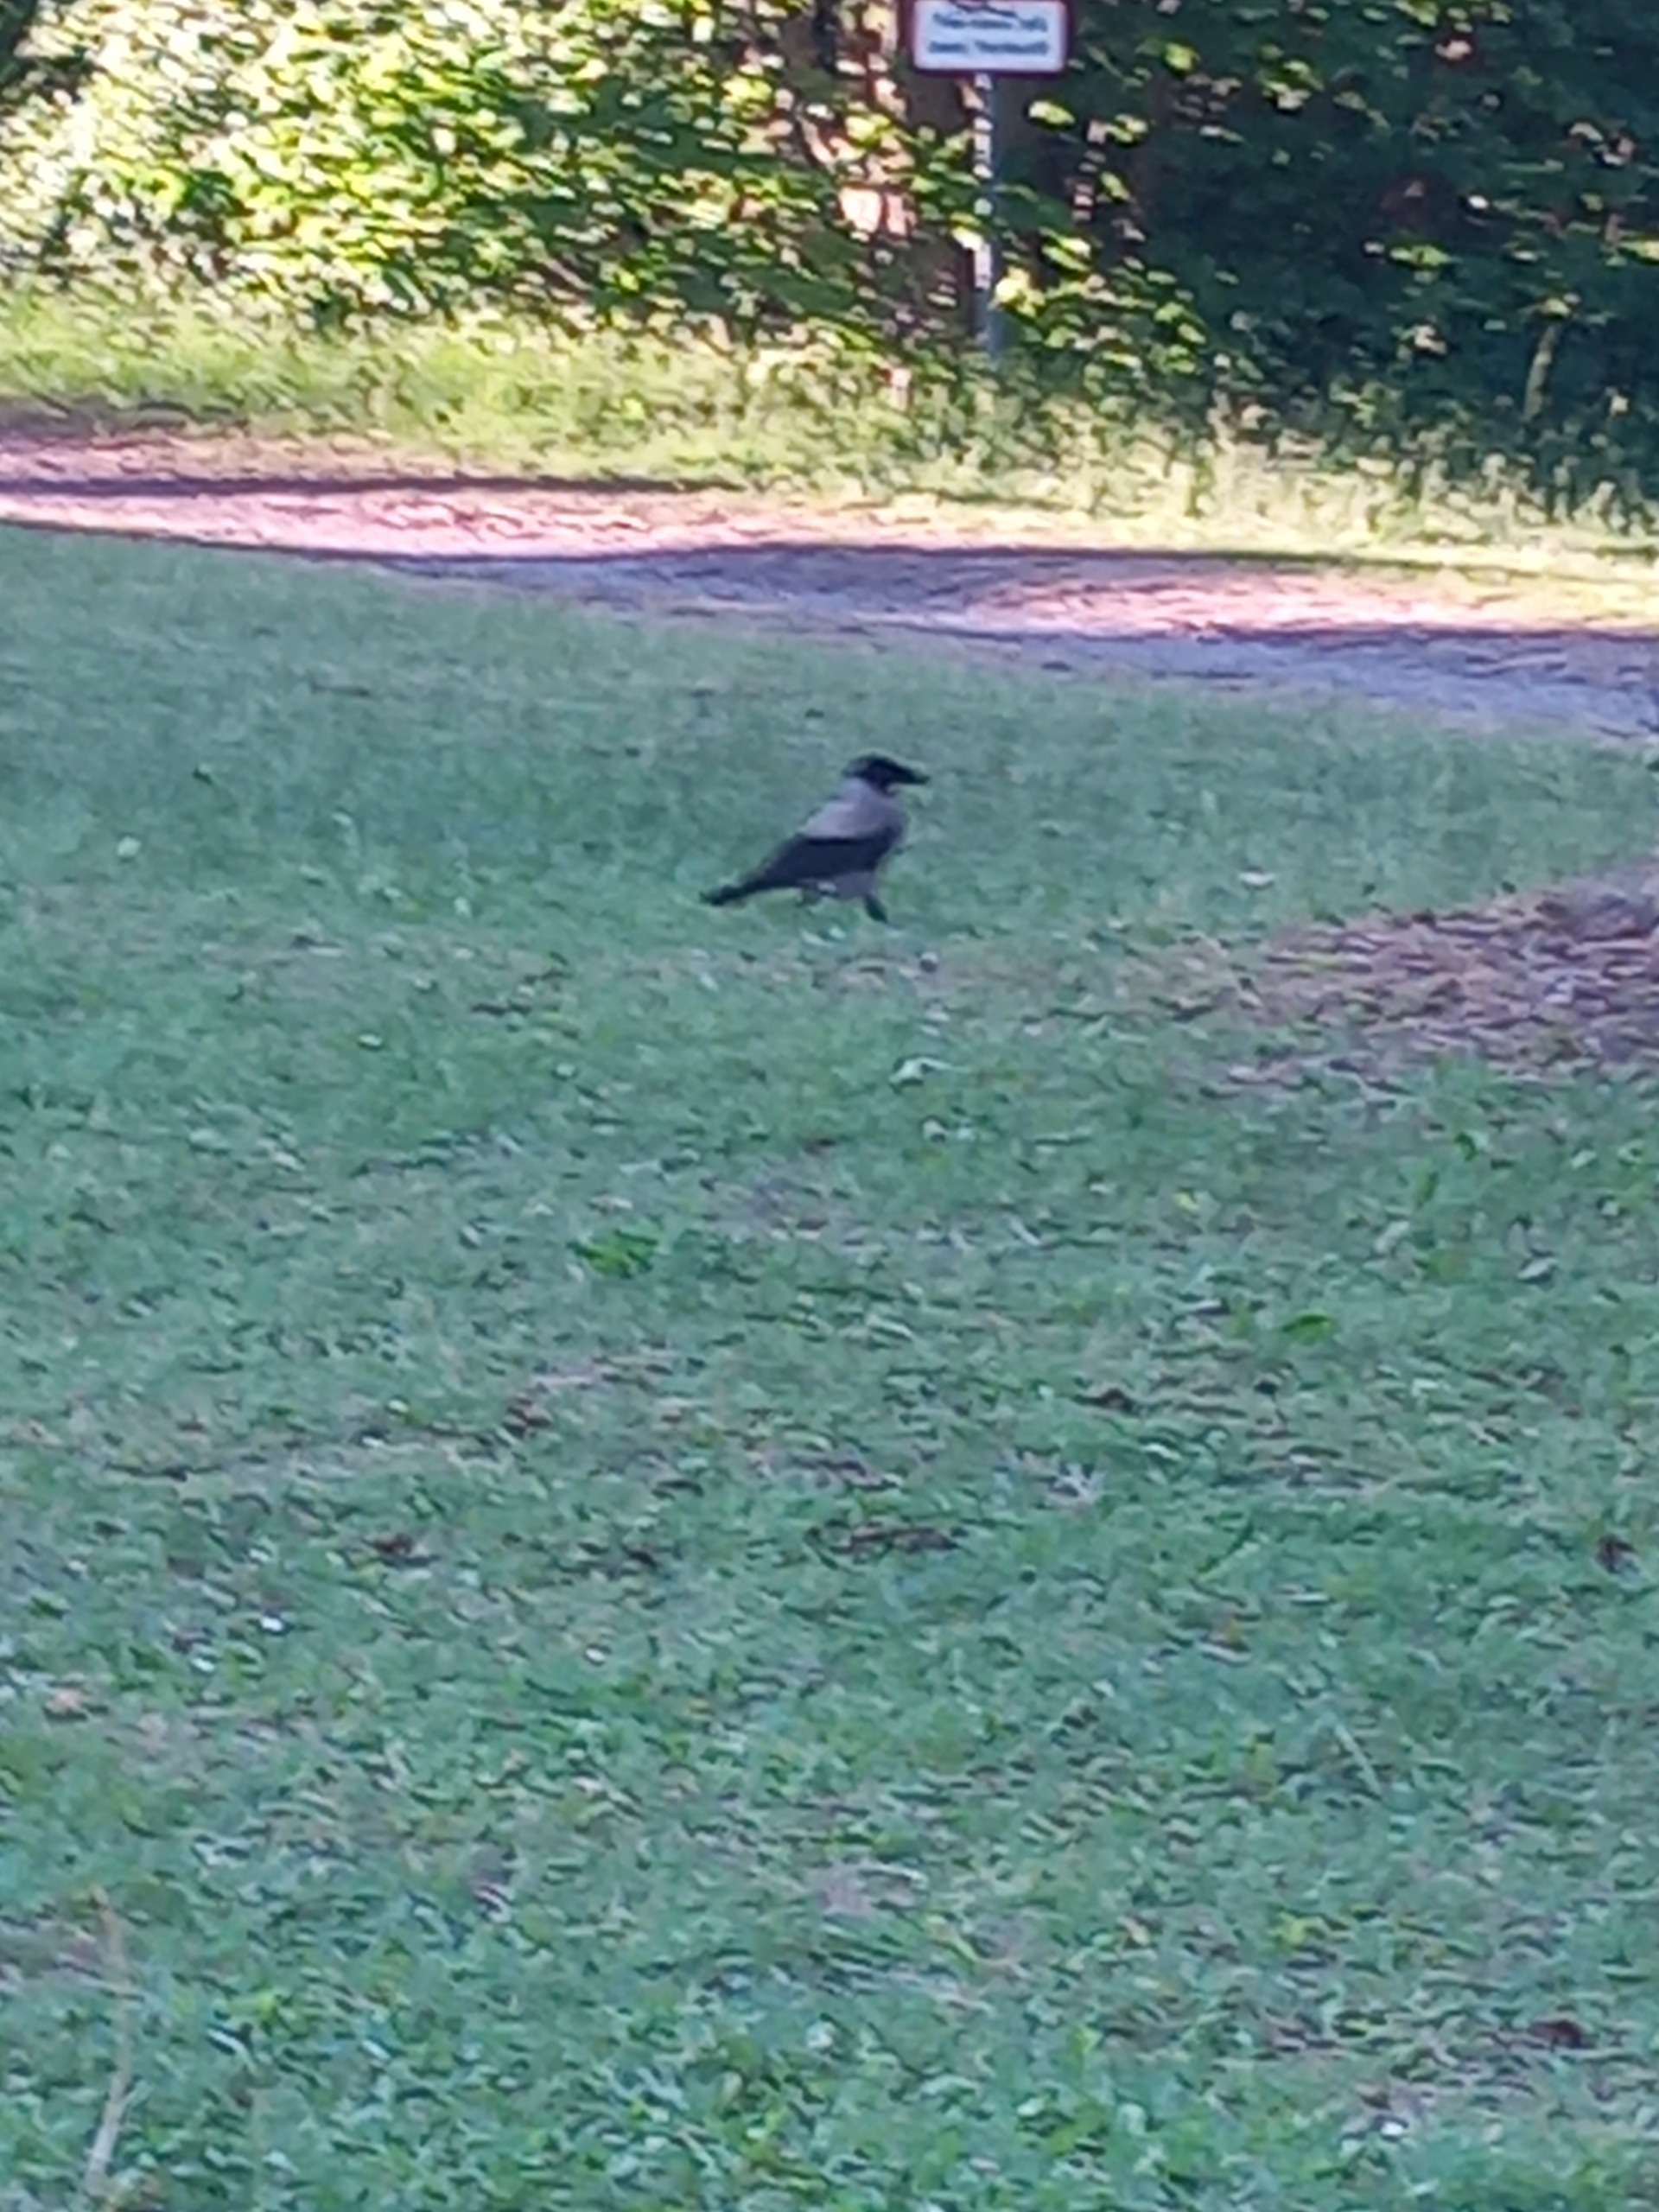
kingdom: Animalia
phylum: Chordata
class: Aves
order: Passeriformes
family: Corvidae
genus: Corvus
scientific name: Corvus cornix
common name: Gråkrage
